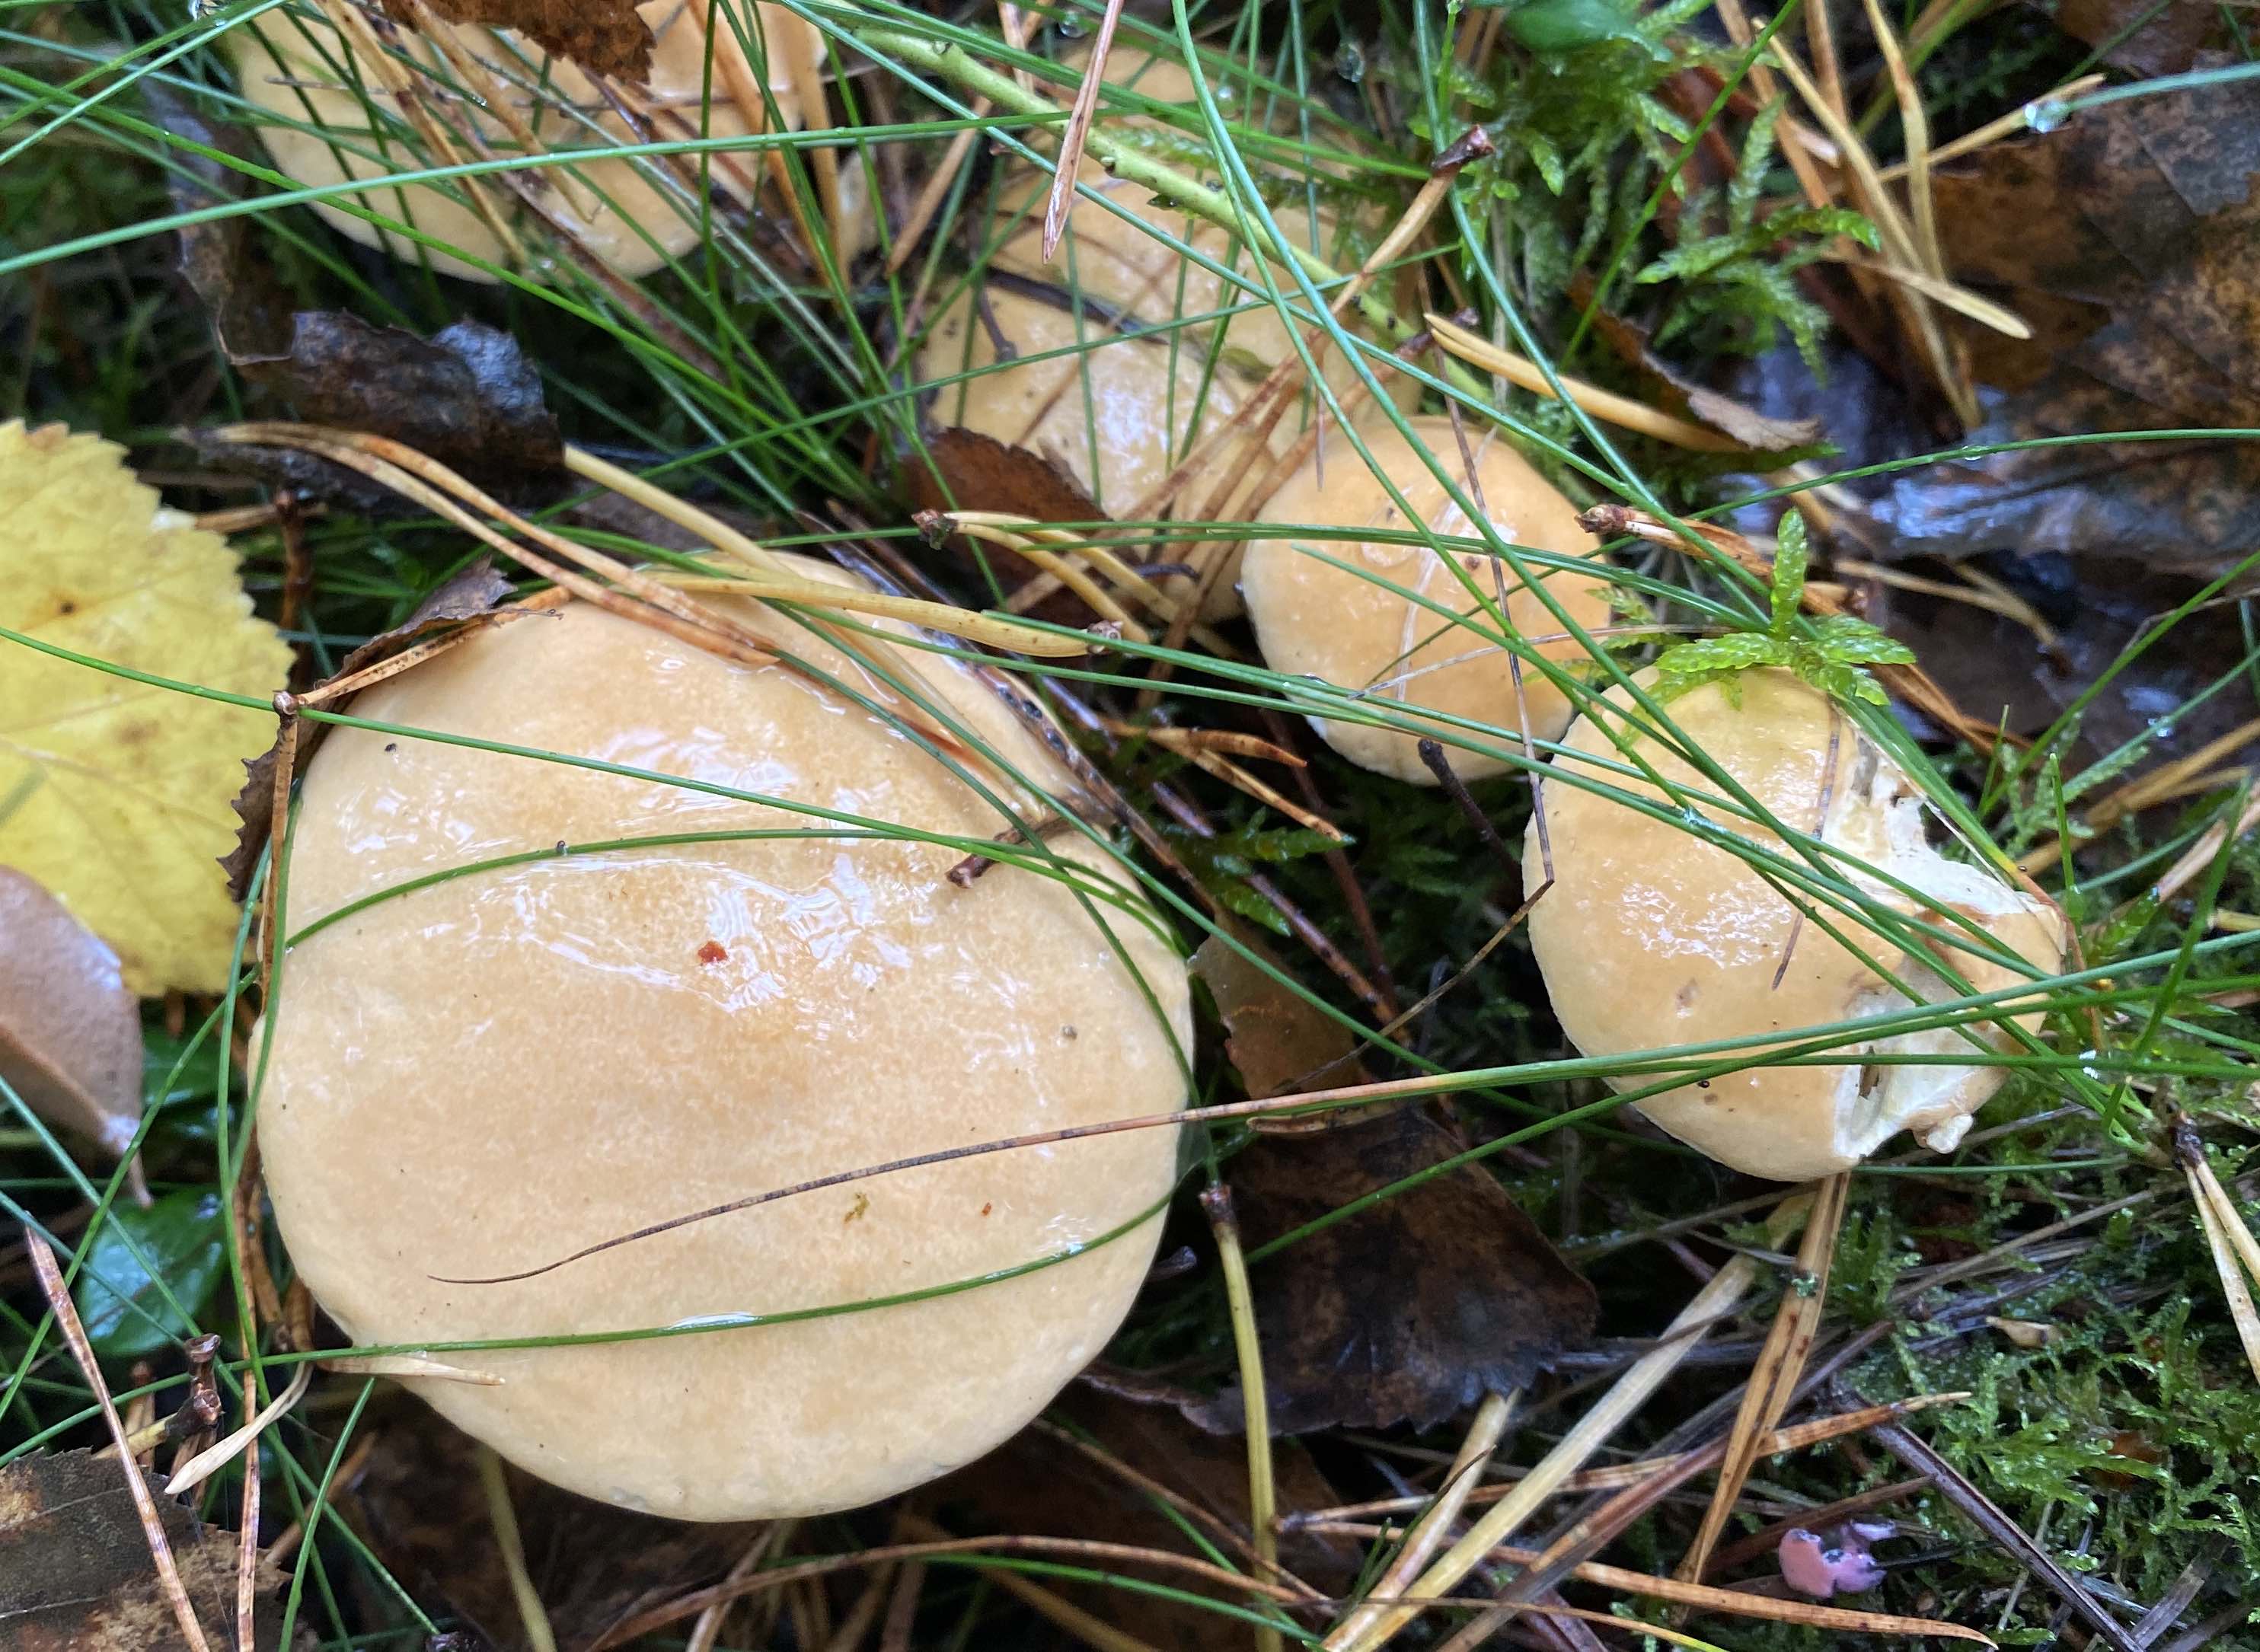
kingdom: Fungi
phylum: Basidiomycota
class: Agaricomycetes
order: Boletales
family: Suillaceae
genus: Suillus
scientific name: Suillus bovinus
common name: grovporet slimrørhat
